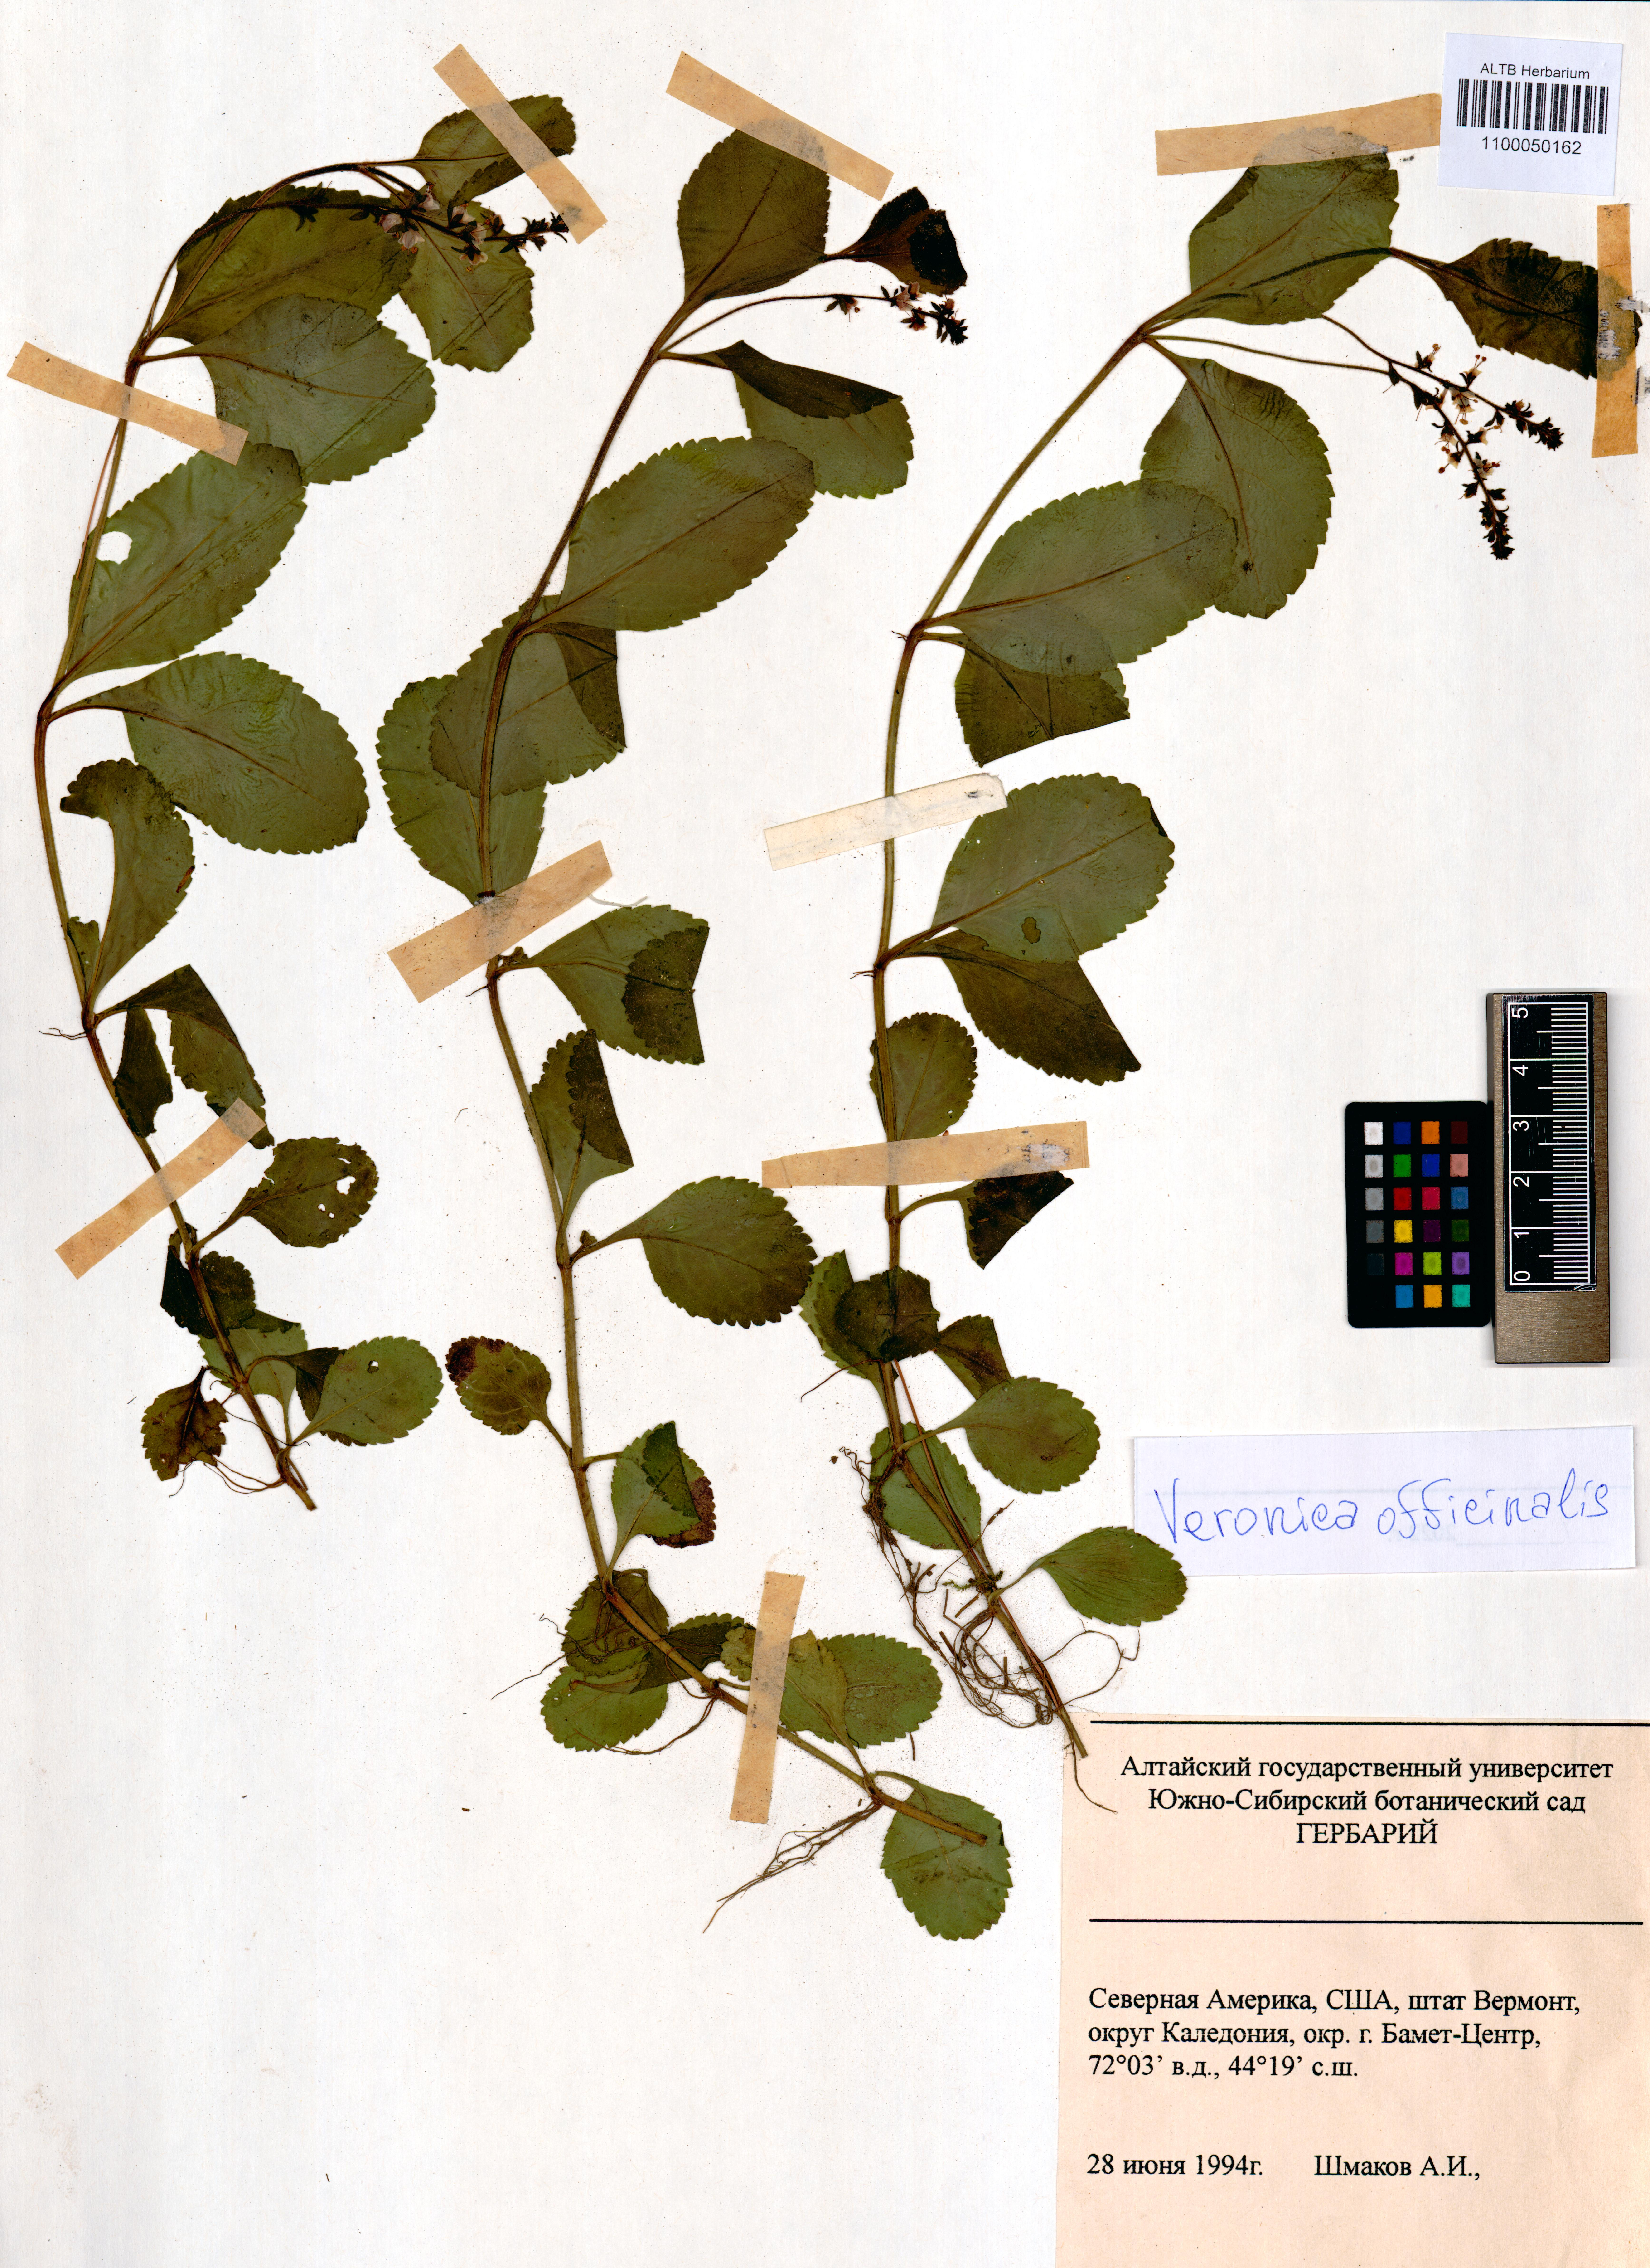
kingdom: Plantae
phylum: Tracheophyta
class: Magnoliopsida
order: Lamiales
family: Plantaginaceae
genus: Veronica
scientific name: Veronica officinalis
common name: Common speedwell
